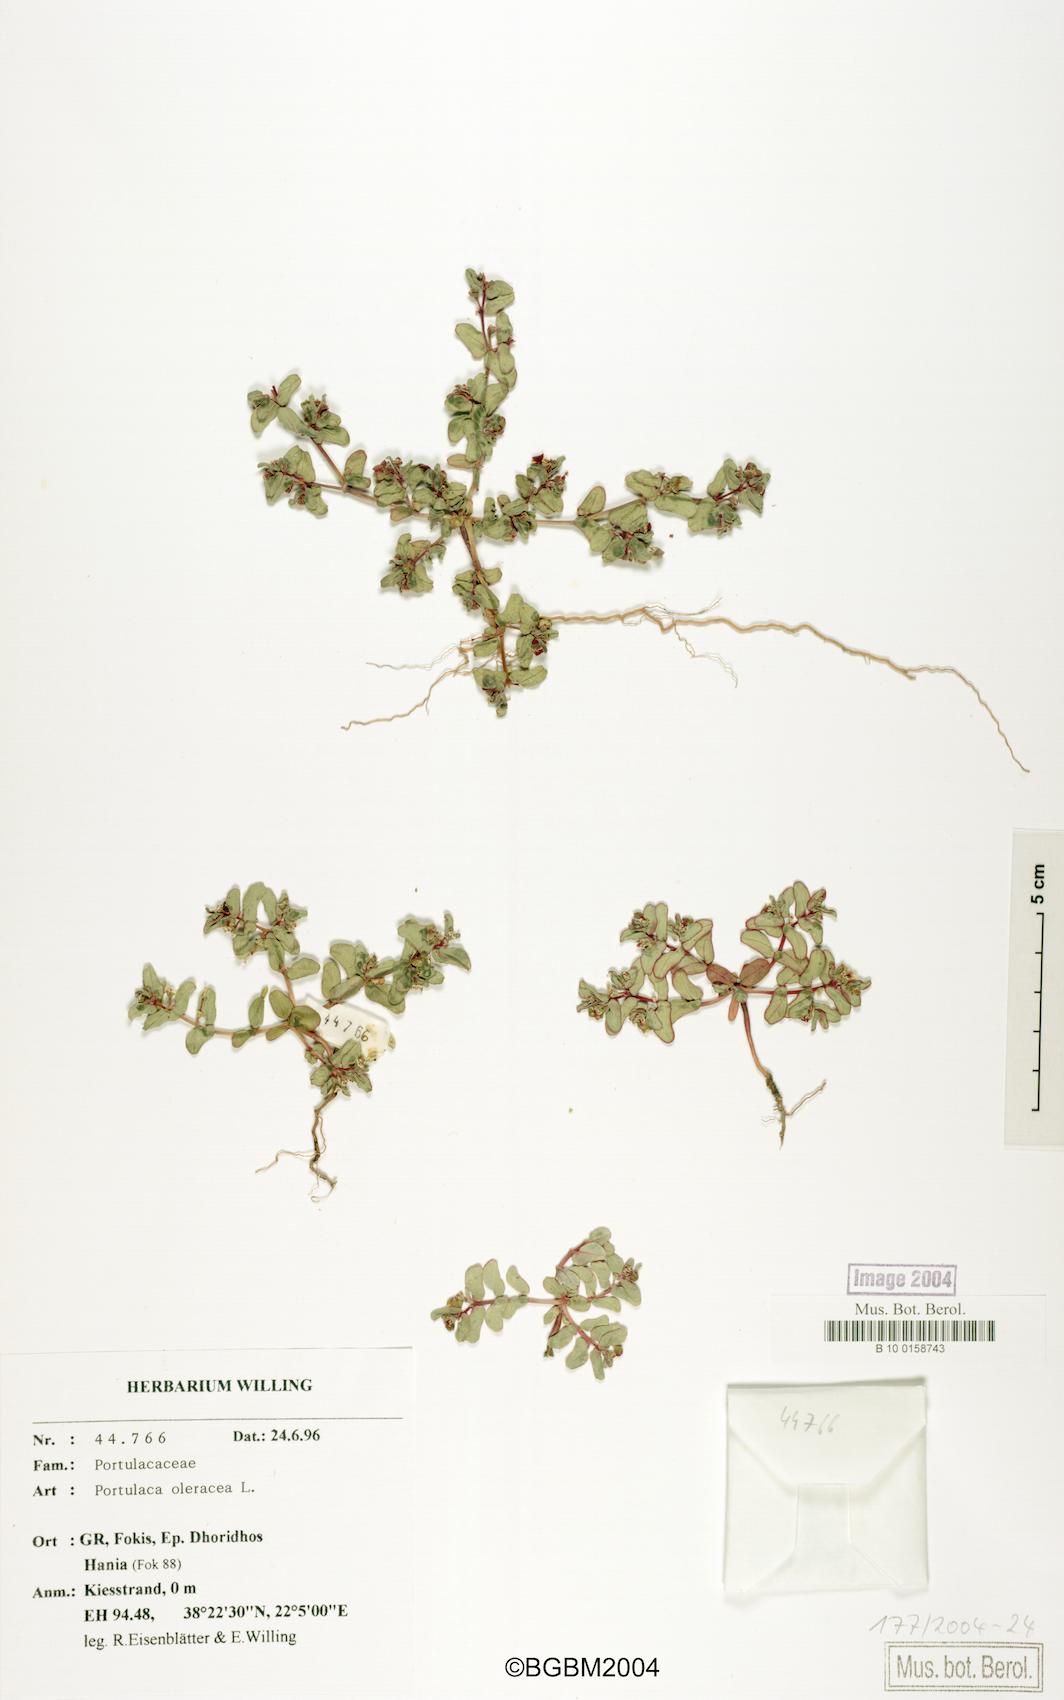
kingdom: Plantae
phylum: Tracheophyta
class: Magnoliopsida
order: Malpighiales
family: Euphorbiaceae
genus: Euphorbia
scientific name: Euphorbia peplis
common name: Purple spurge
